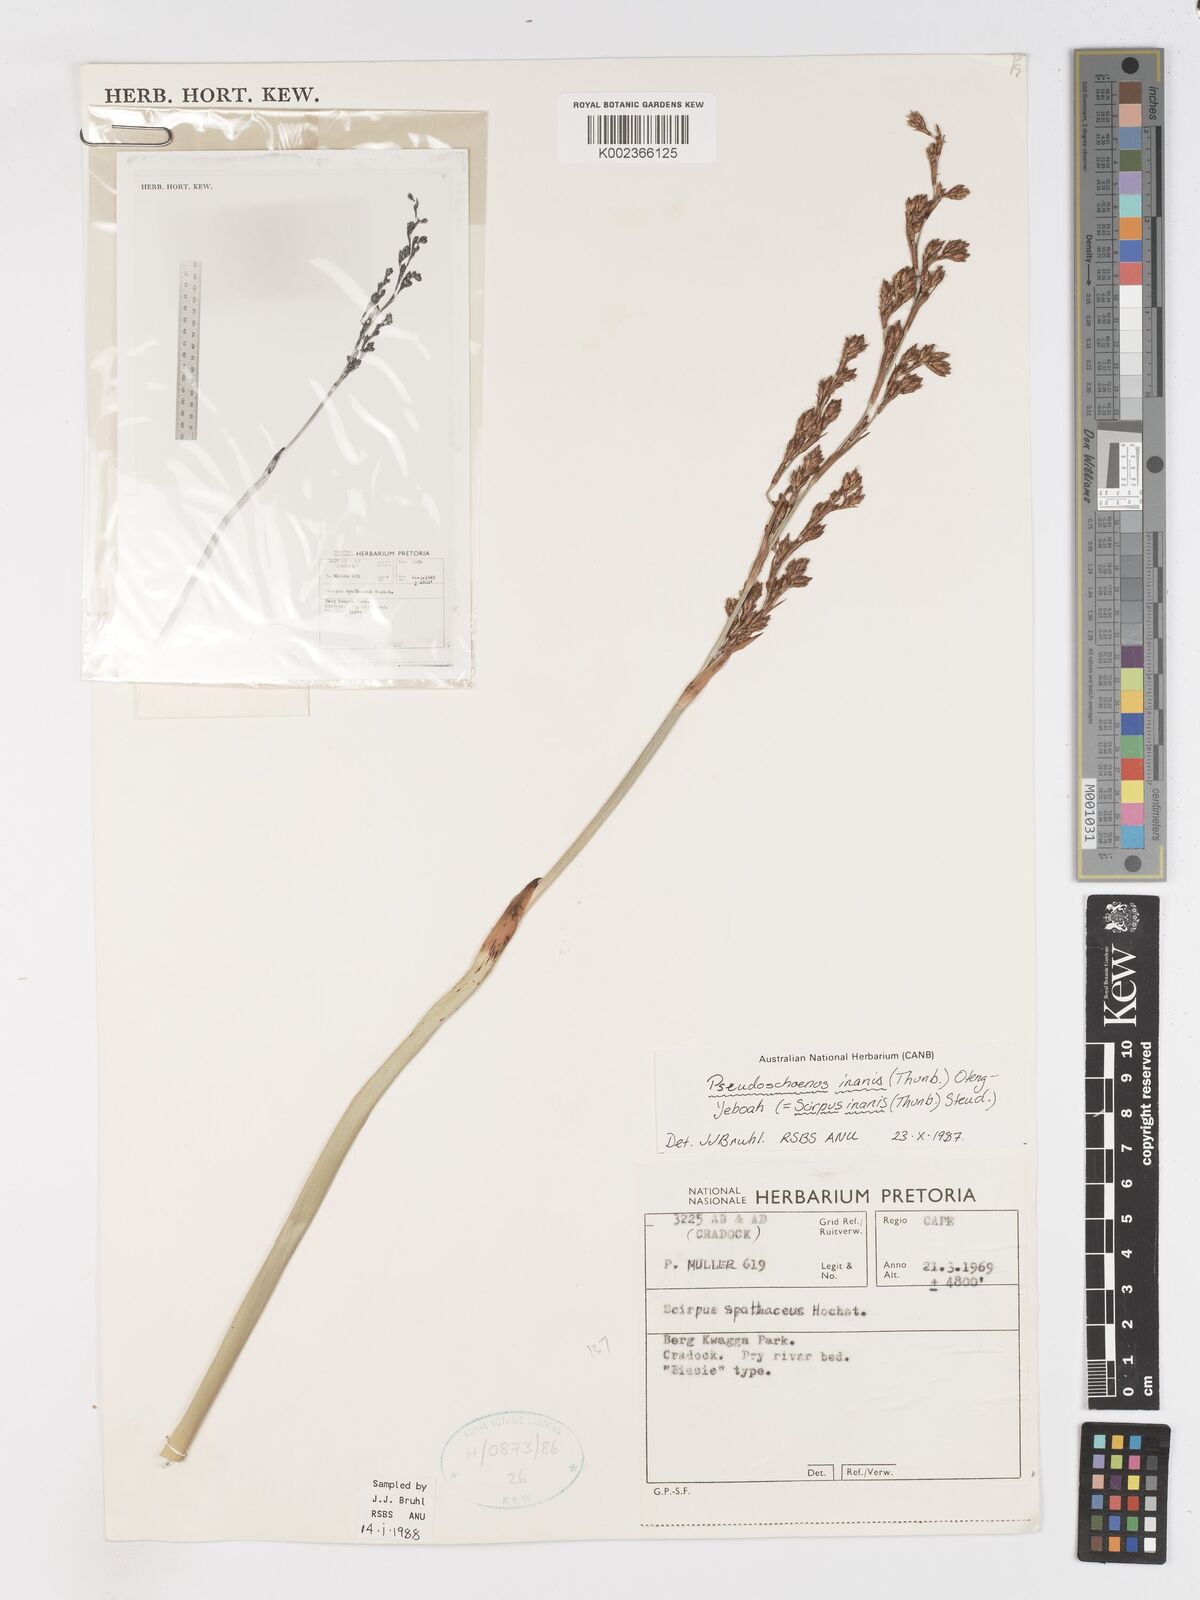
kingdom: Plantae
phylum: Tracheophyta
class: Liliopsida
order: Poales
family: Cyperaceae
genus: Pseudoschoenus
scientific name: Pseudoschoenus inanis
